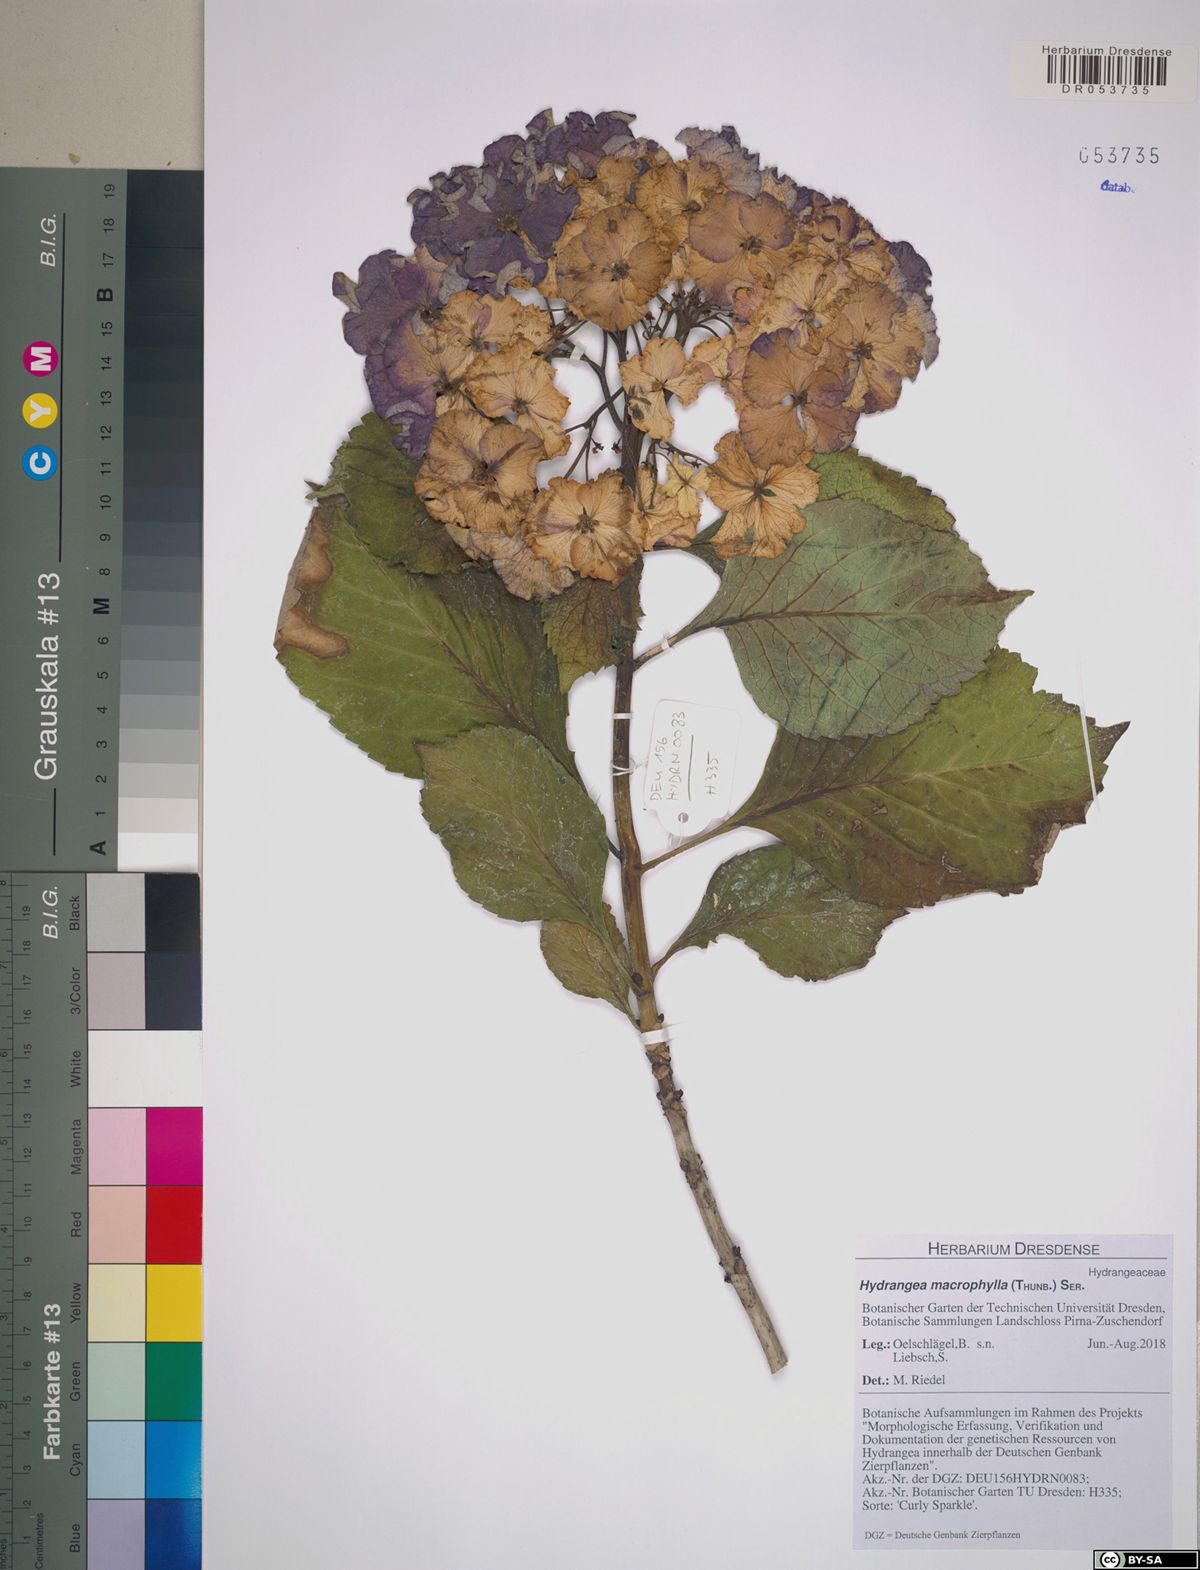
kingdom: Plantae
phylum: Tracheophyta
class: Magnoliopsida
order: Cornales
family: Hydrangeaceae
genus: Hydrangea
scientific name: Hydrangea macrophylla
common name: Hydrangea
